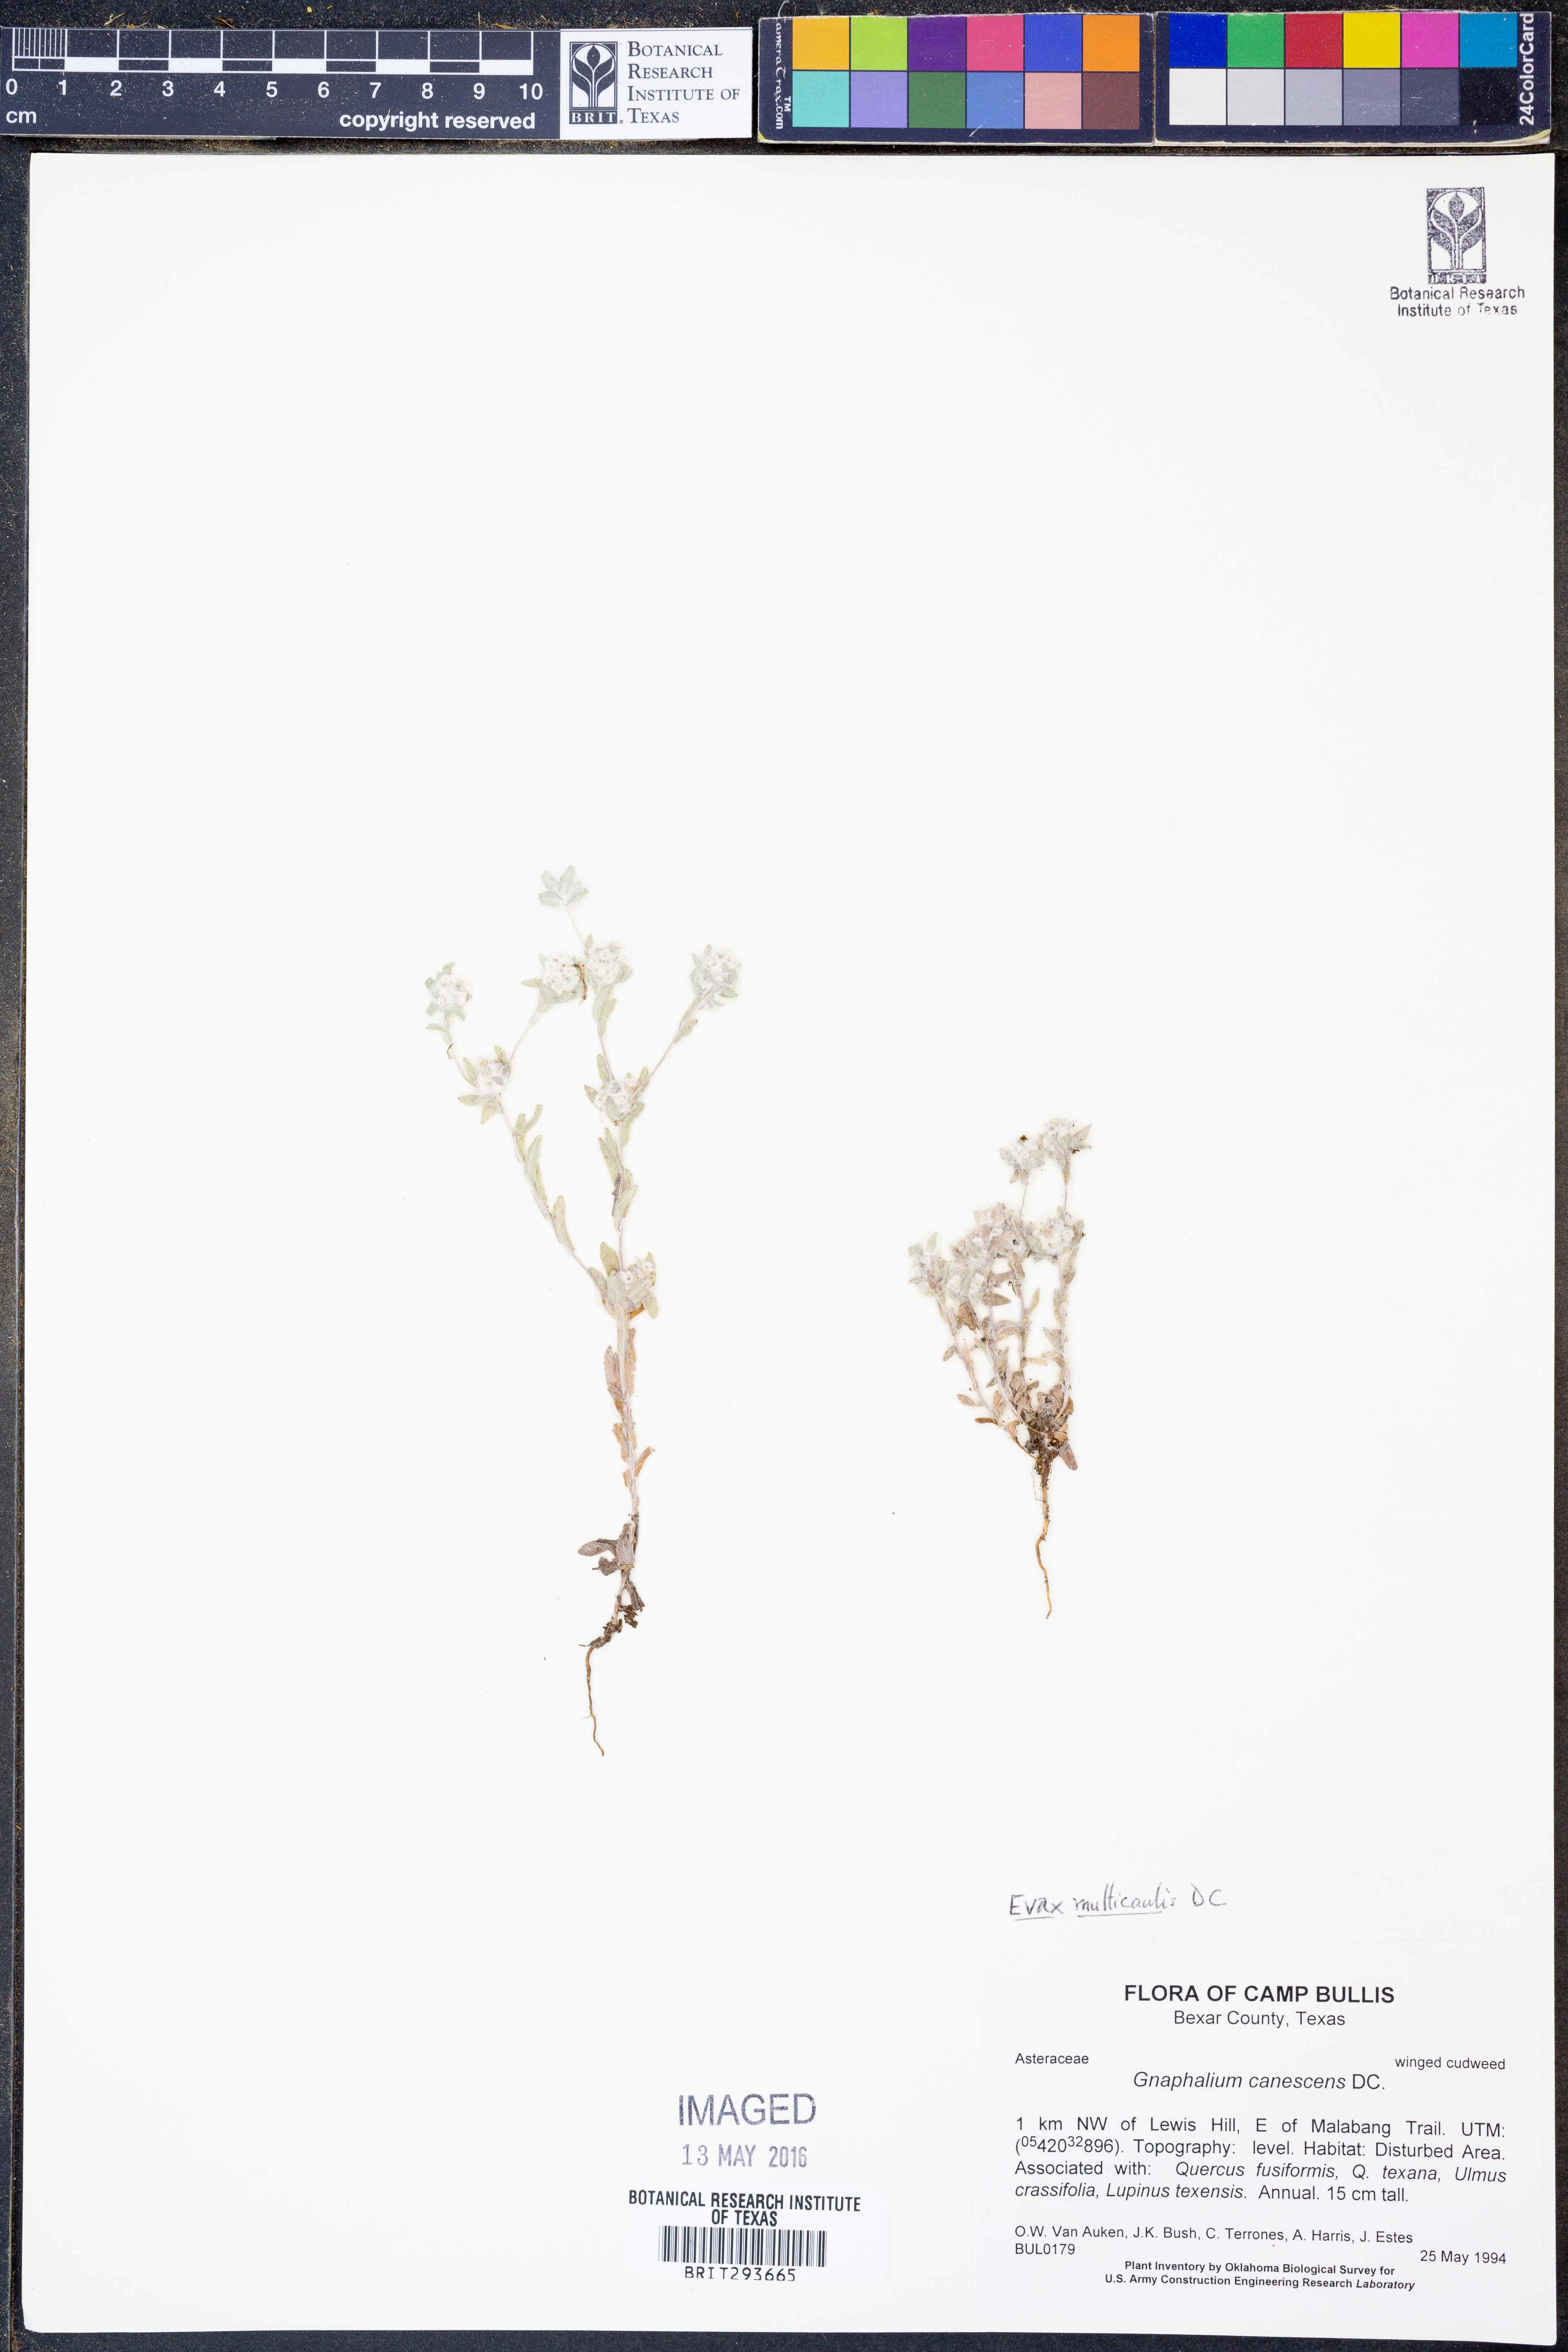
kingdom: Plantae
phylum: Tracheophyta
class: Magnoliopsida
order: Asterales
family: Asteraceae
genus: Diaperia
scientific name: Diaperia verna
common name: Many-stem rabbit-tobacco
